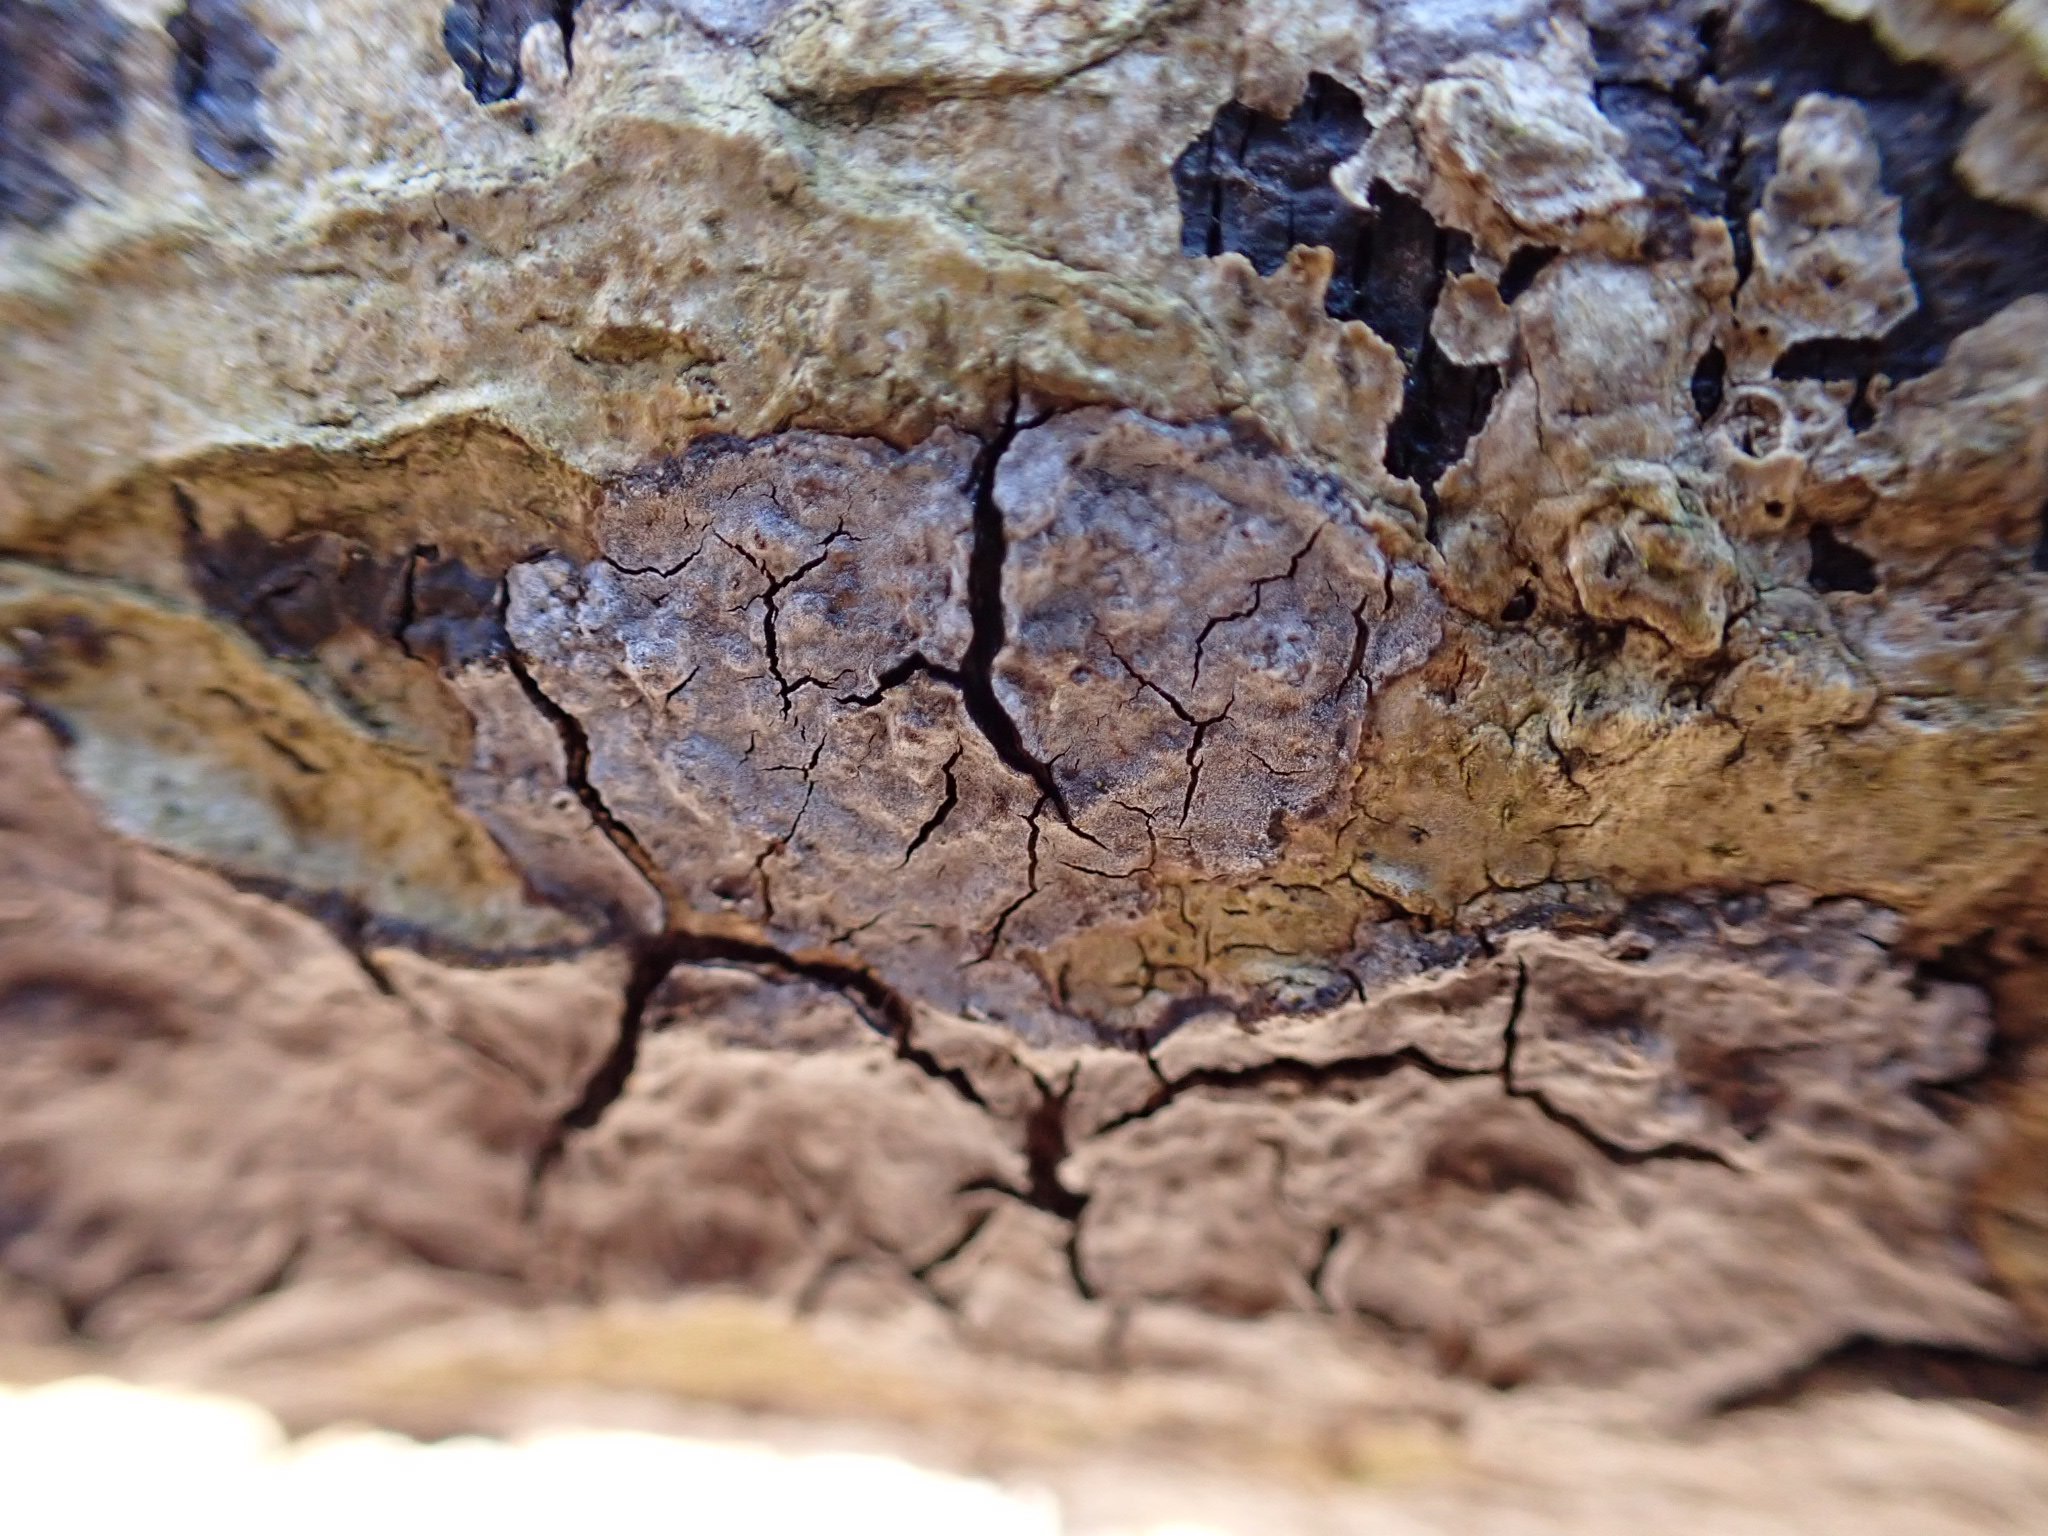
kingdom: Fungi
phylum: Basidiomycota
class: Agaricomycetes
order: Russulales
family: Peniophoraceae
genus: Peniophora
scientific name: Peniophora limitata
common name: mørkrandet voksskind
